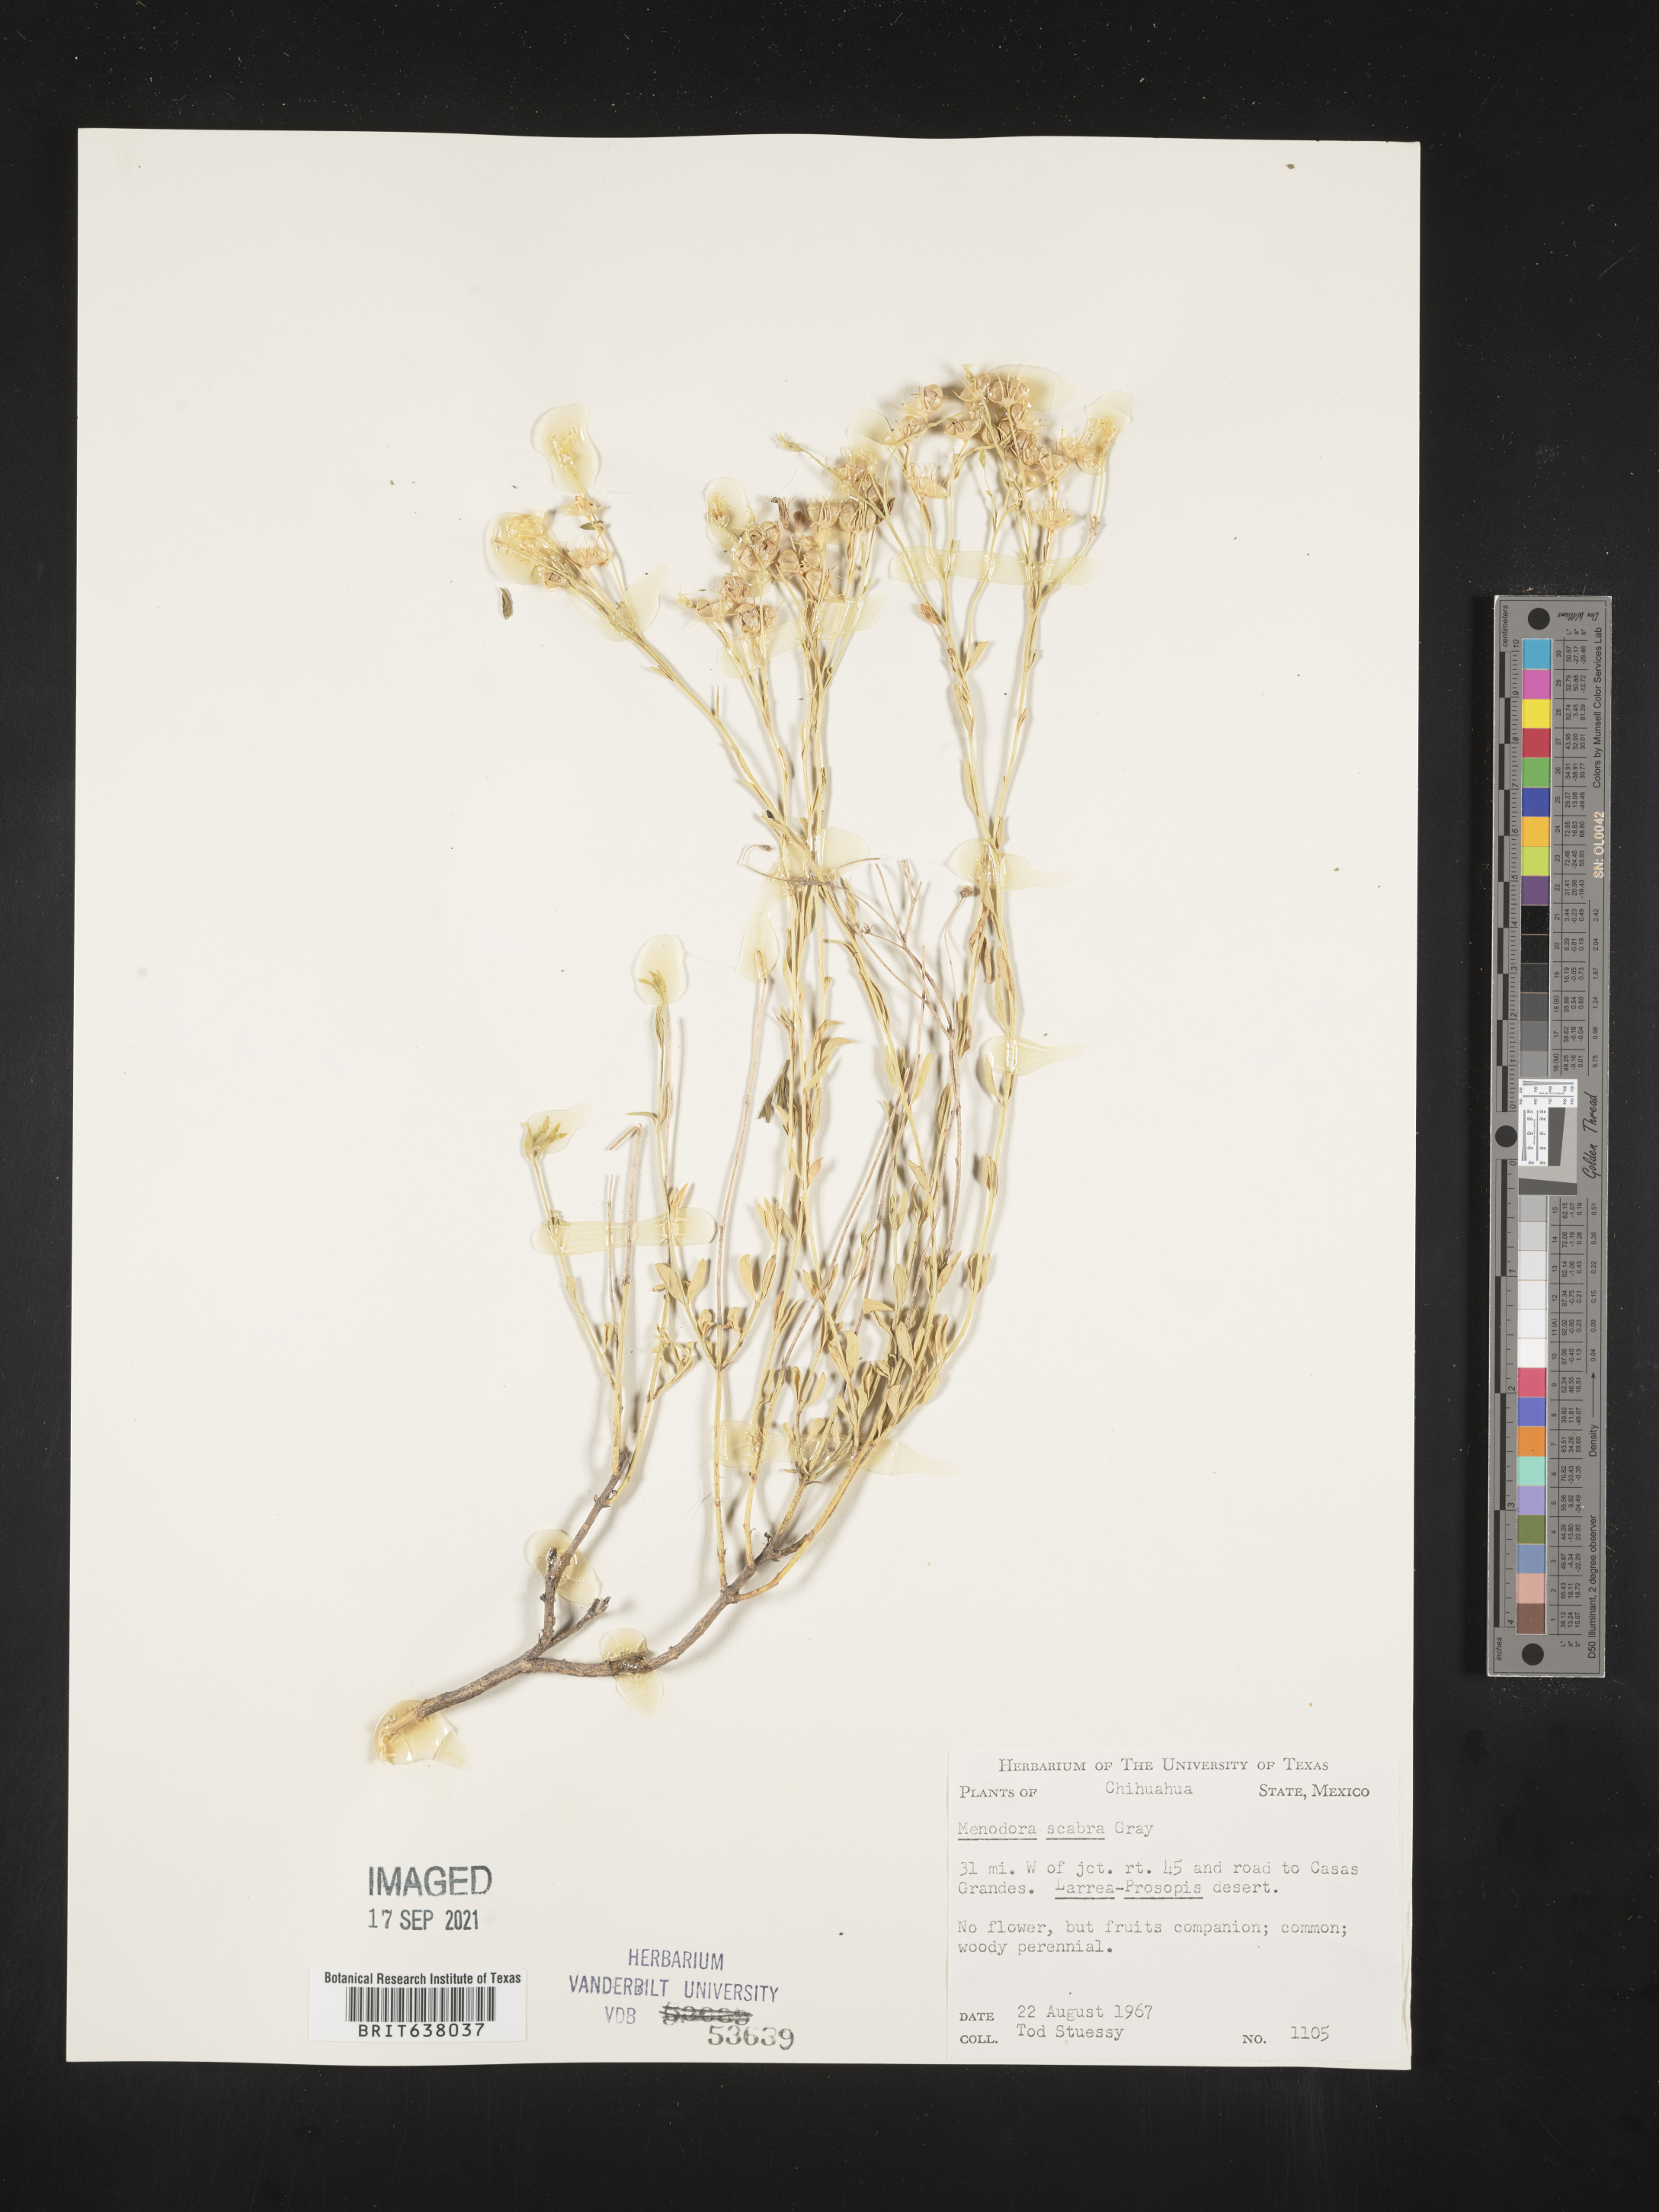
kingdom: Plantae
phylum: Tracheophyta
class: Magnoliopsida
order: Lamiales
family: Oleaceae
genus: Menodora
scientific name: Menodora
